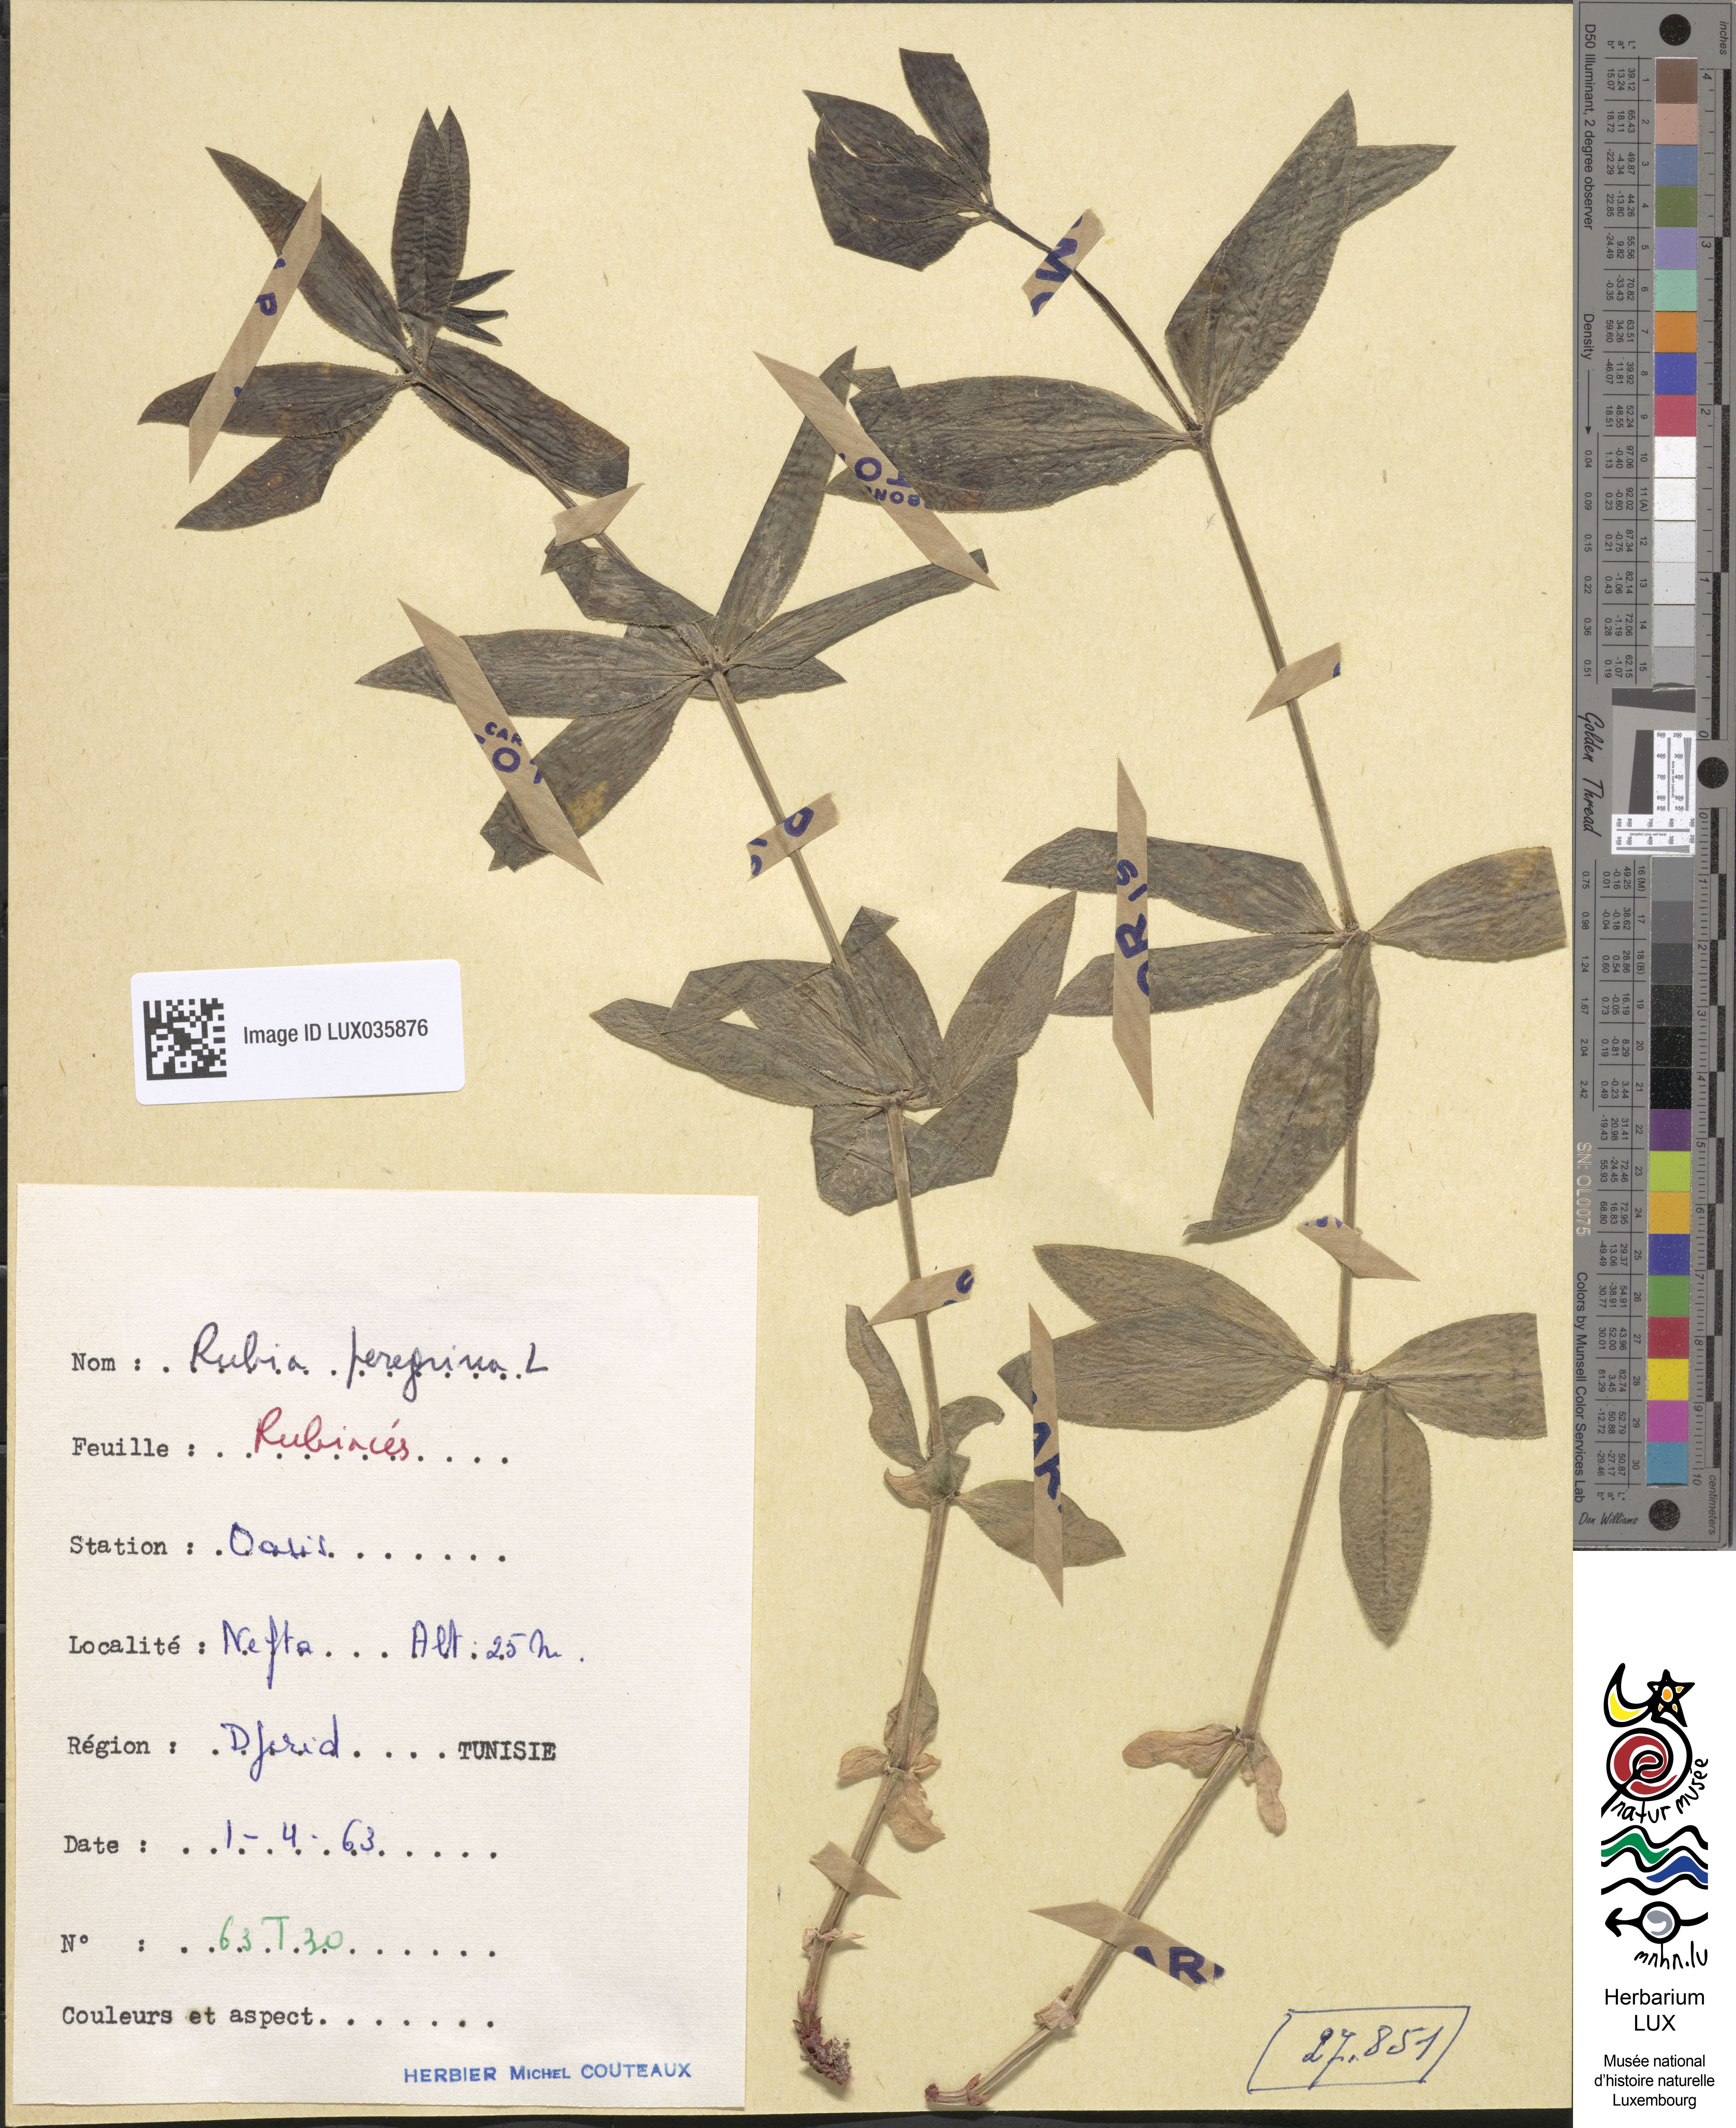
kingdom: Plantae
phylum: Tracheophyta
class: Magnoliopsida
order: Gentianales
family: Rubiaceae
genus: Rubia
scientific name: Rubia peregrina
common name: Wild madder
